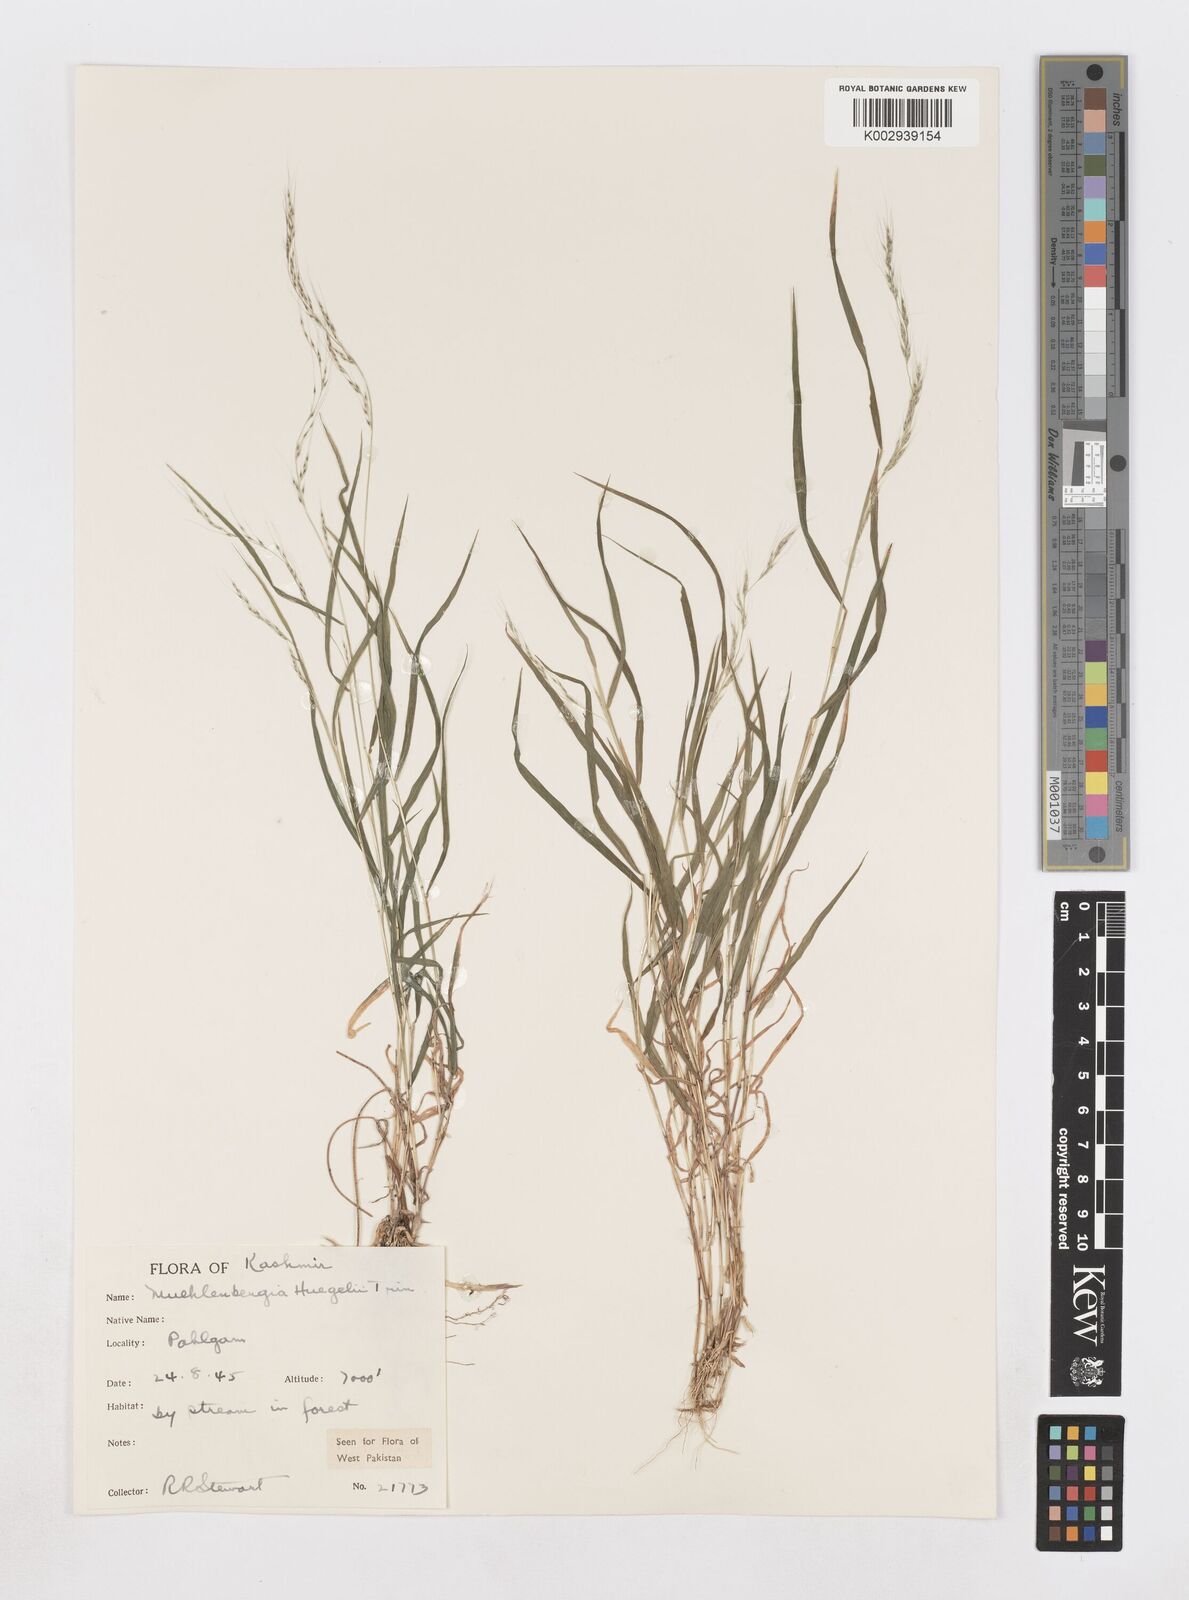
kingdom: Plantae
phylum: Tracheophyta
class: Liliopsida
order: Poales
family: Poaceae
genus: Muhlenbergia
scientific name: Muhlenbergia huegelii
